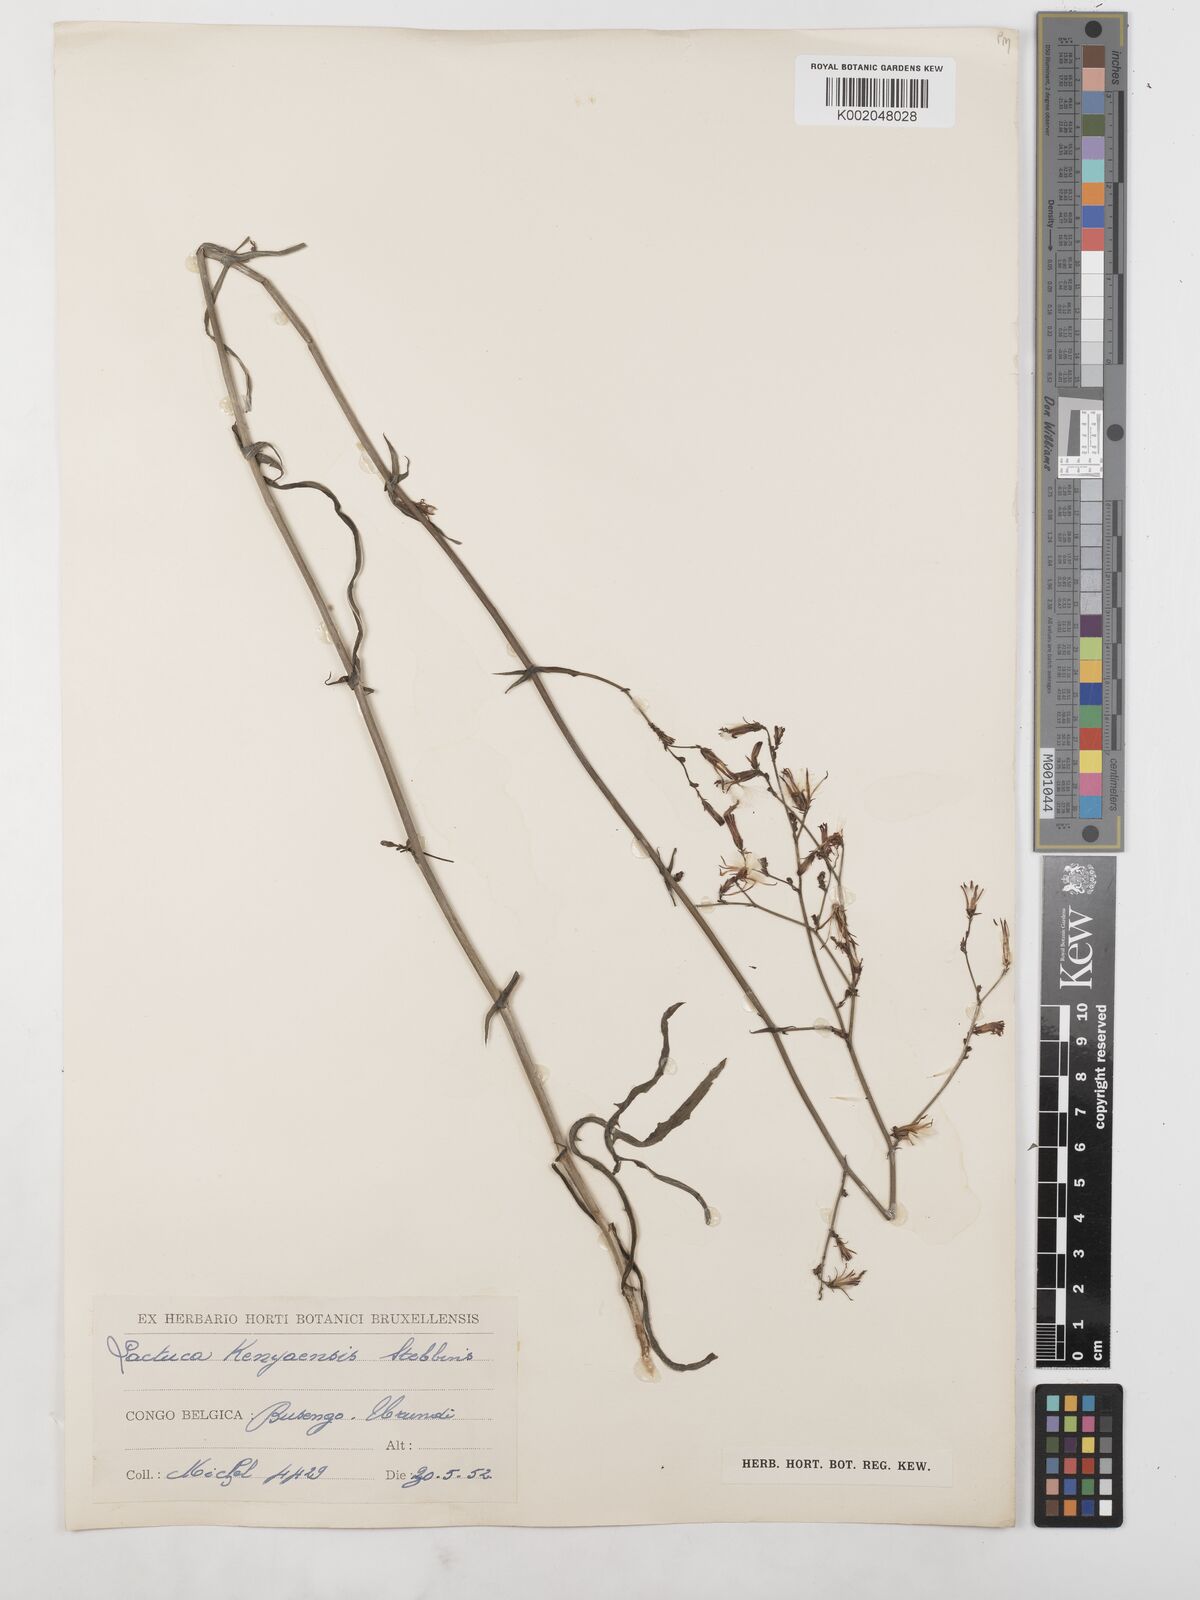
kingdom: Plantae
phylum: Tracheophyta
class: Magnoliopsida
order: Asterales
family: Asteraceae
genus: Lactuca
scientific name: Lactuca inermis
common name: Wild lettuce
